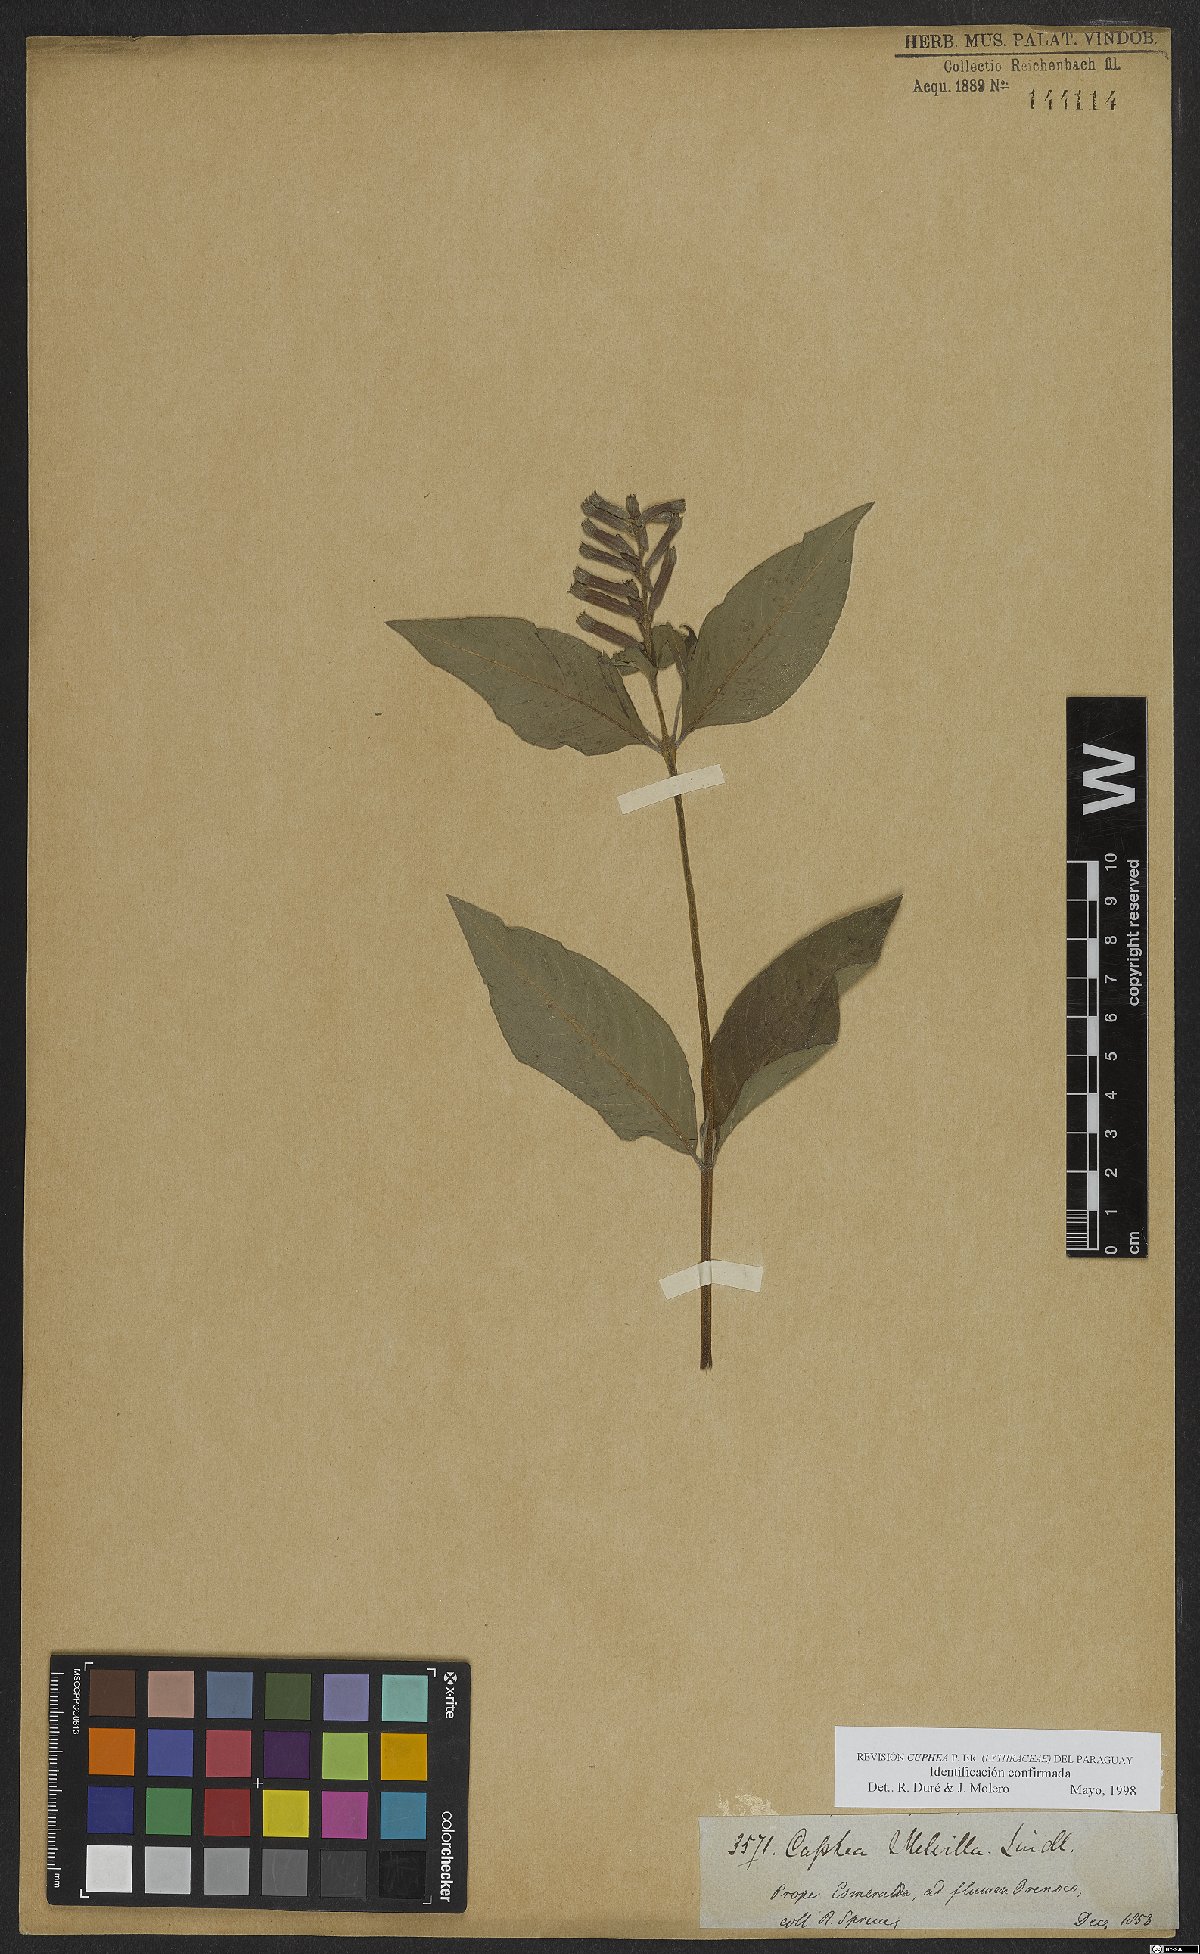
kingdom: Plantae
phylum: Tracheophyta
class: Magnoliopsida
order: Myrtales
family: Lythraceae
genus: Cuphea
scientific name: Cuphea melvilla
